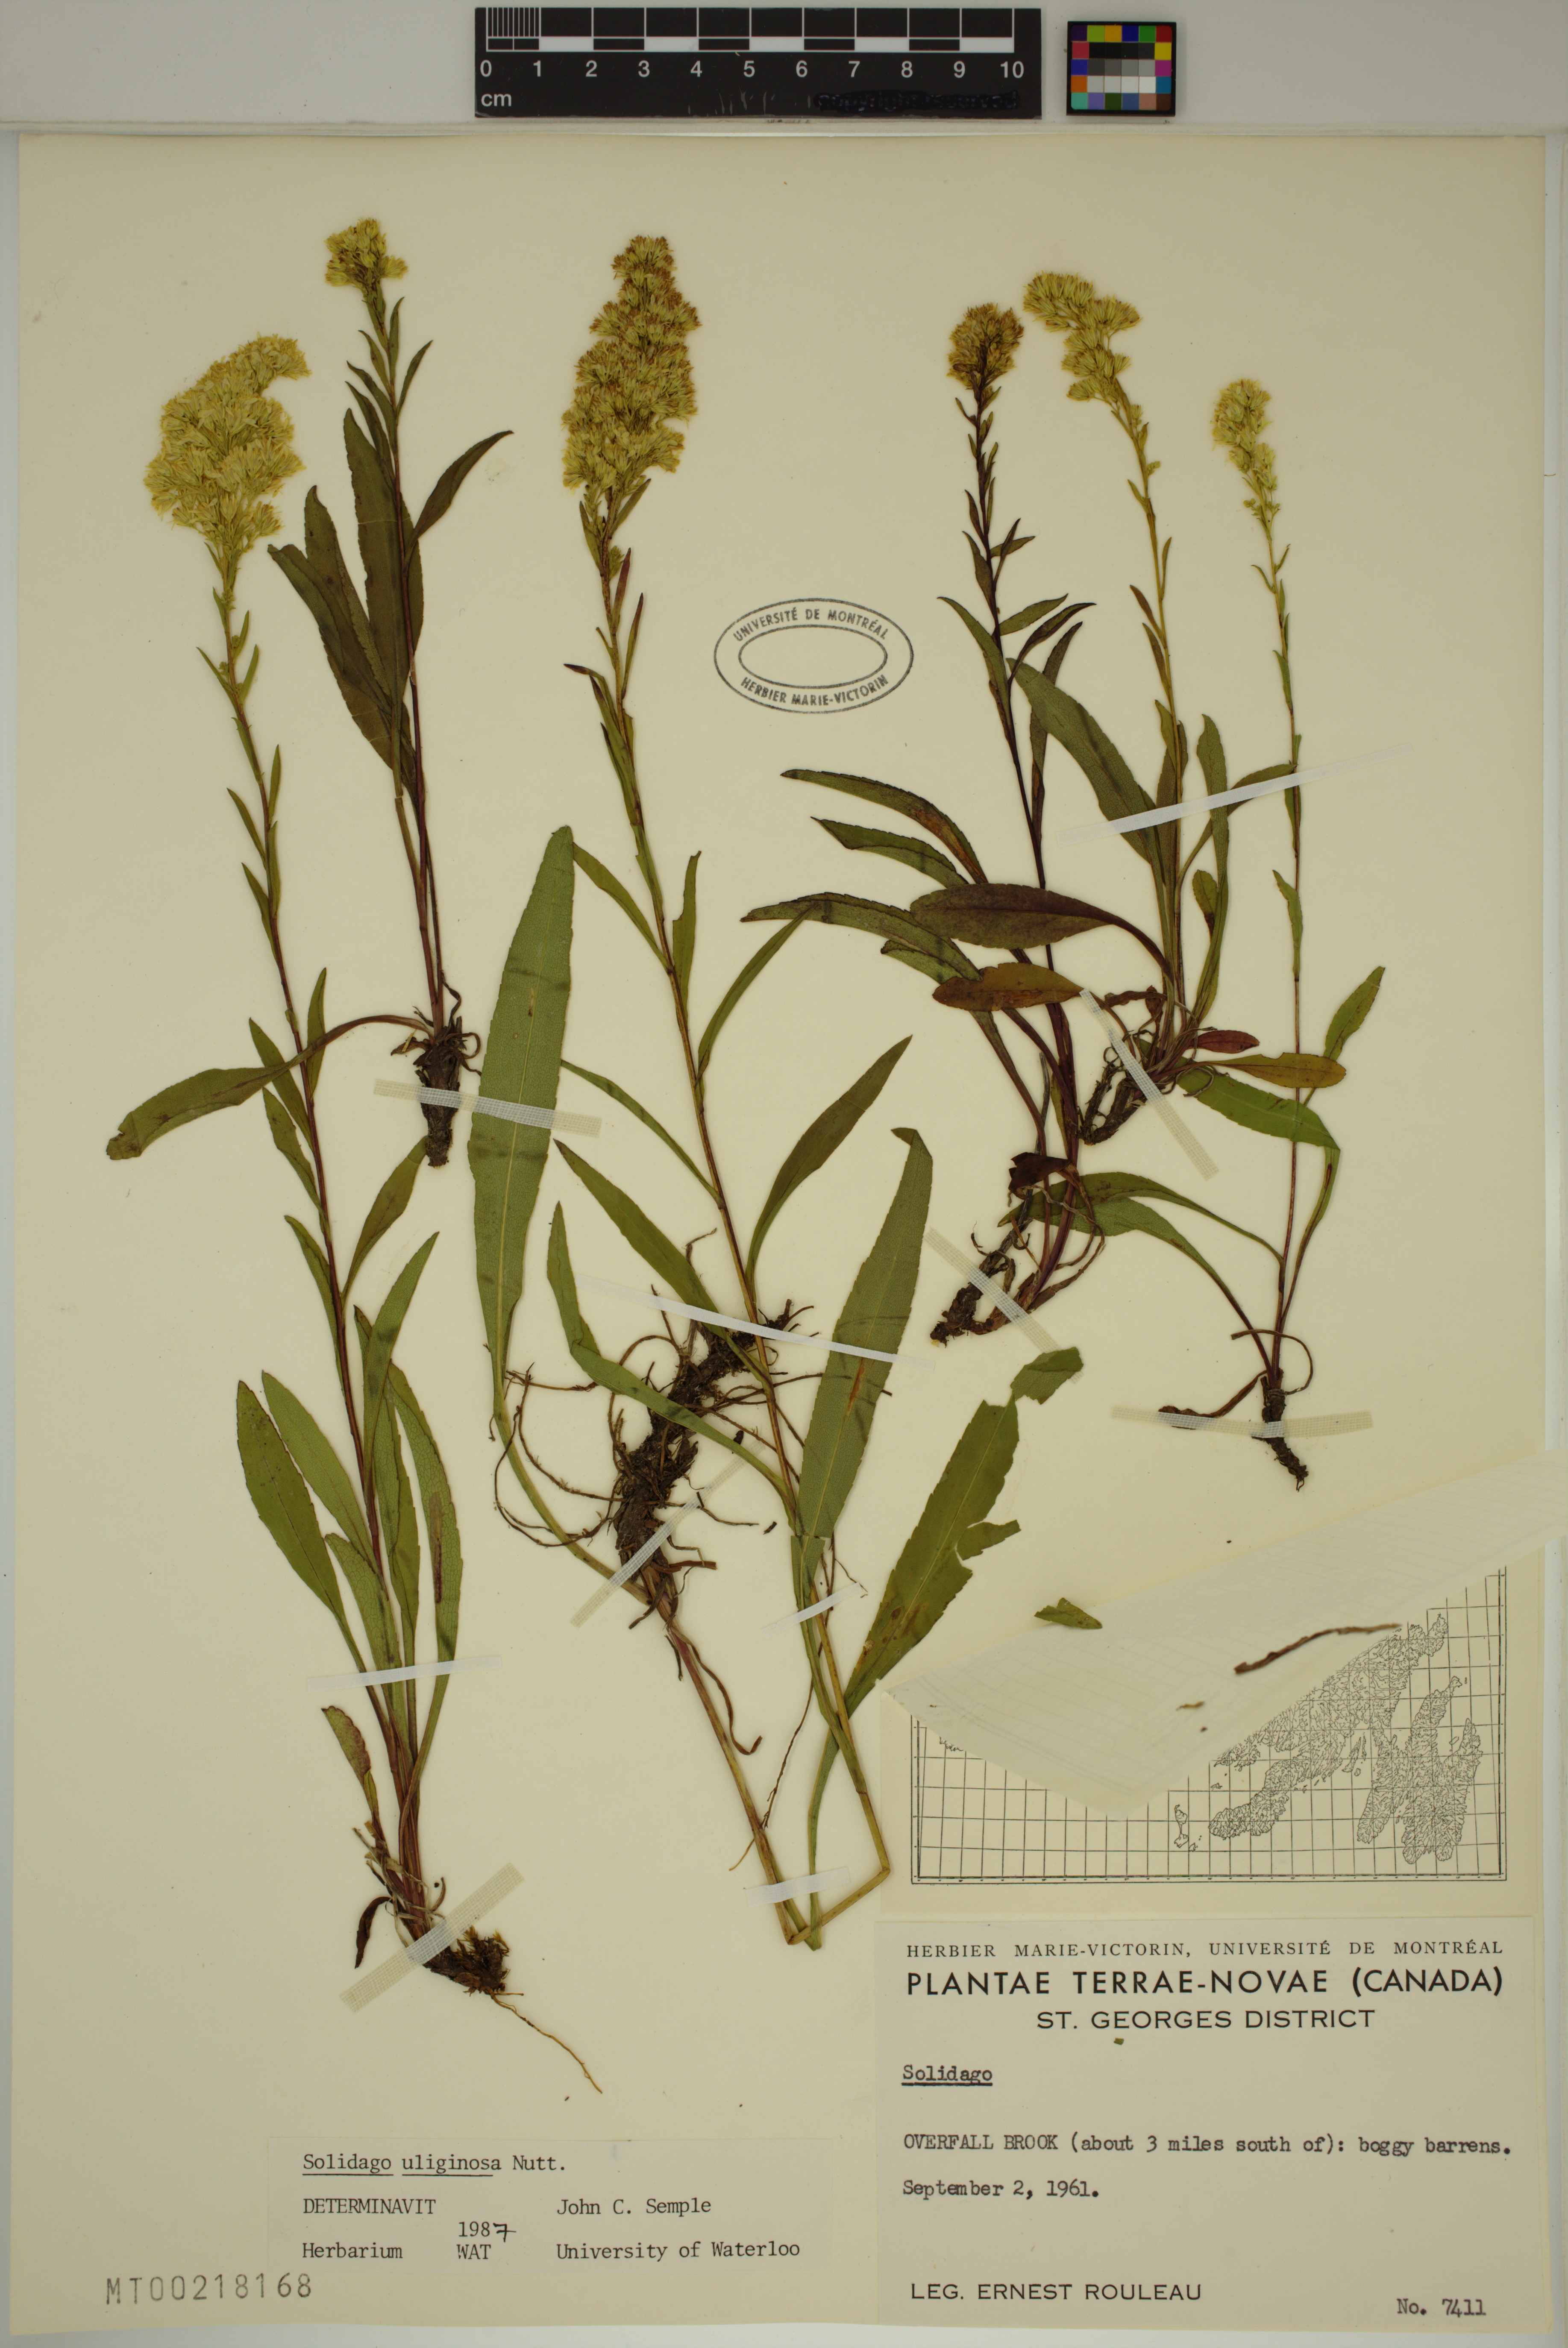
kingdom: Plantae
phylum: Tracheophyta
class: Magnoliopsida
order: Asterales
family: Asteraceae
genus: Solidago
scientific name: Solidago uliginosa
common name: Bog goldenrod
